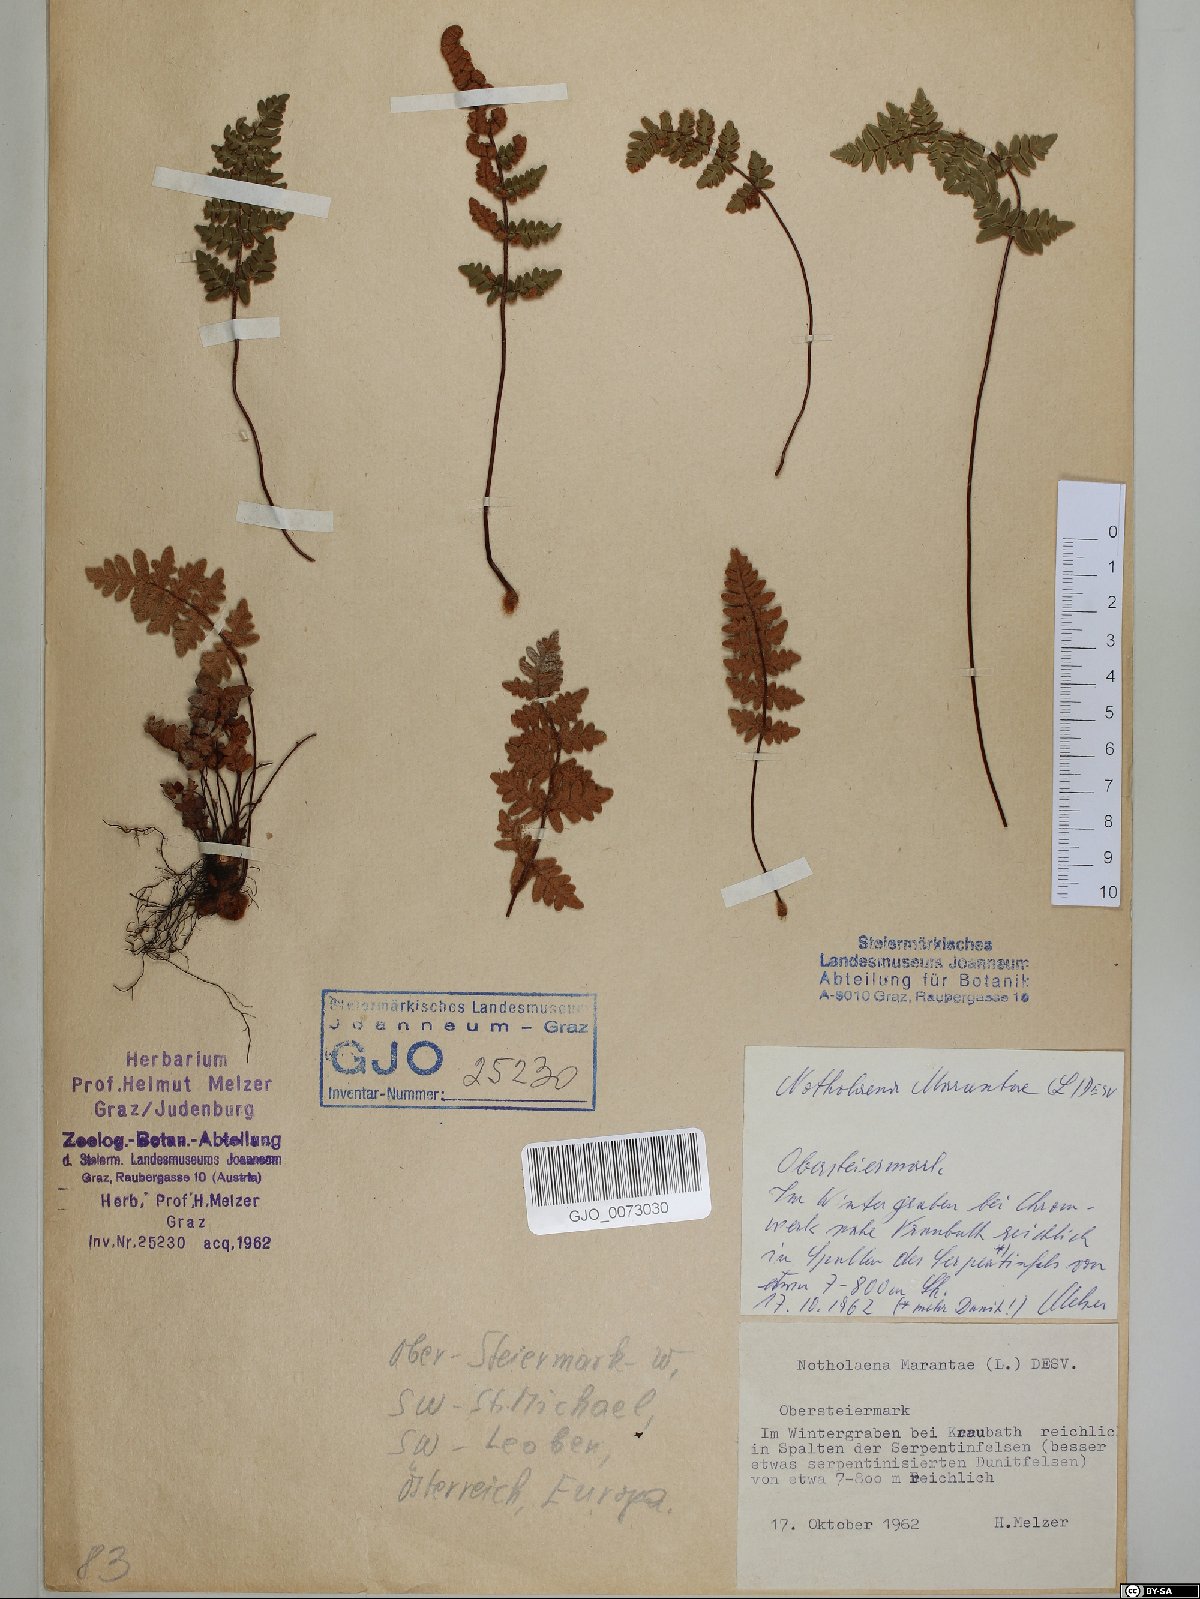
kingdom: Plantae
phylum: Tracheophyta
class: Polypodiopsida
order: Polypodiales
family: Pteridaceae
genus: Paragymnopteris
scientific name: Paragymnopteris marantae
